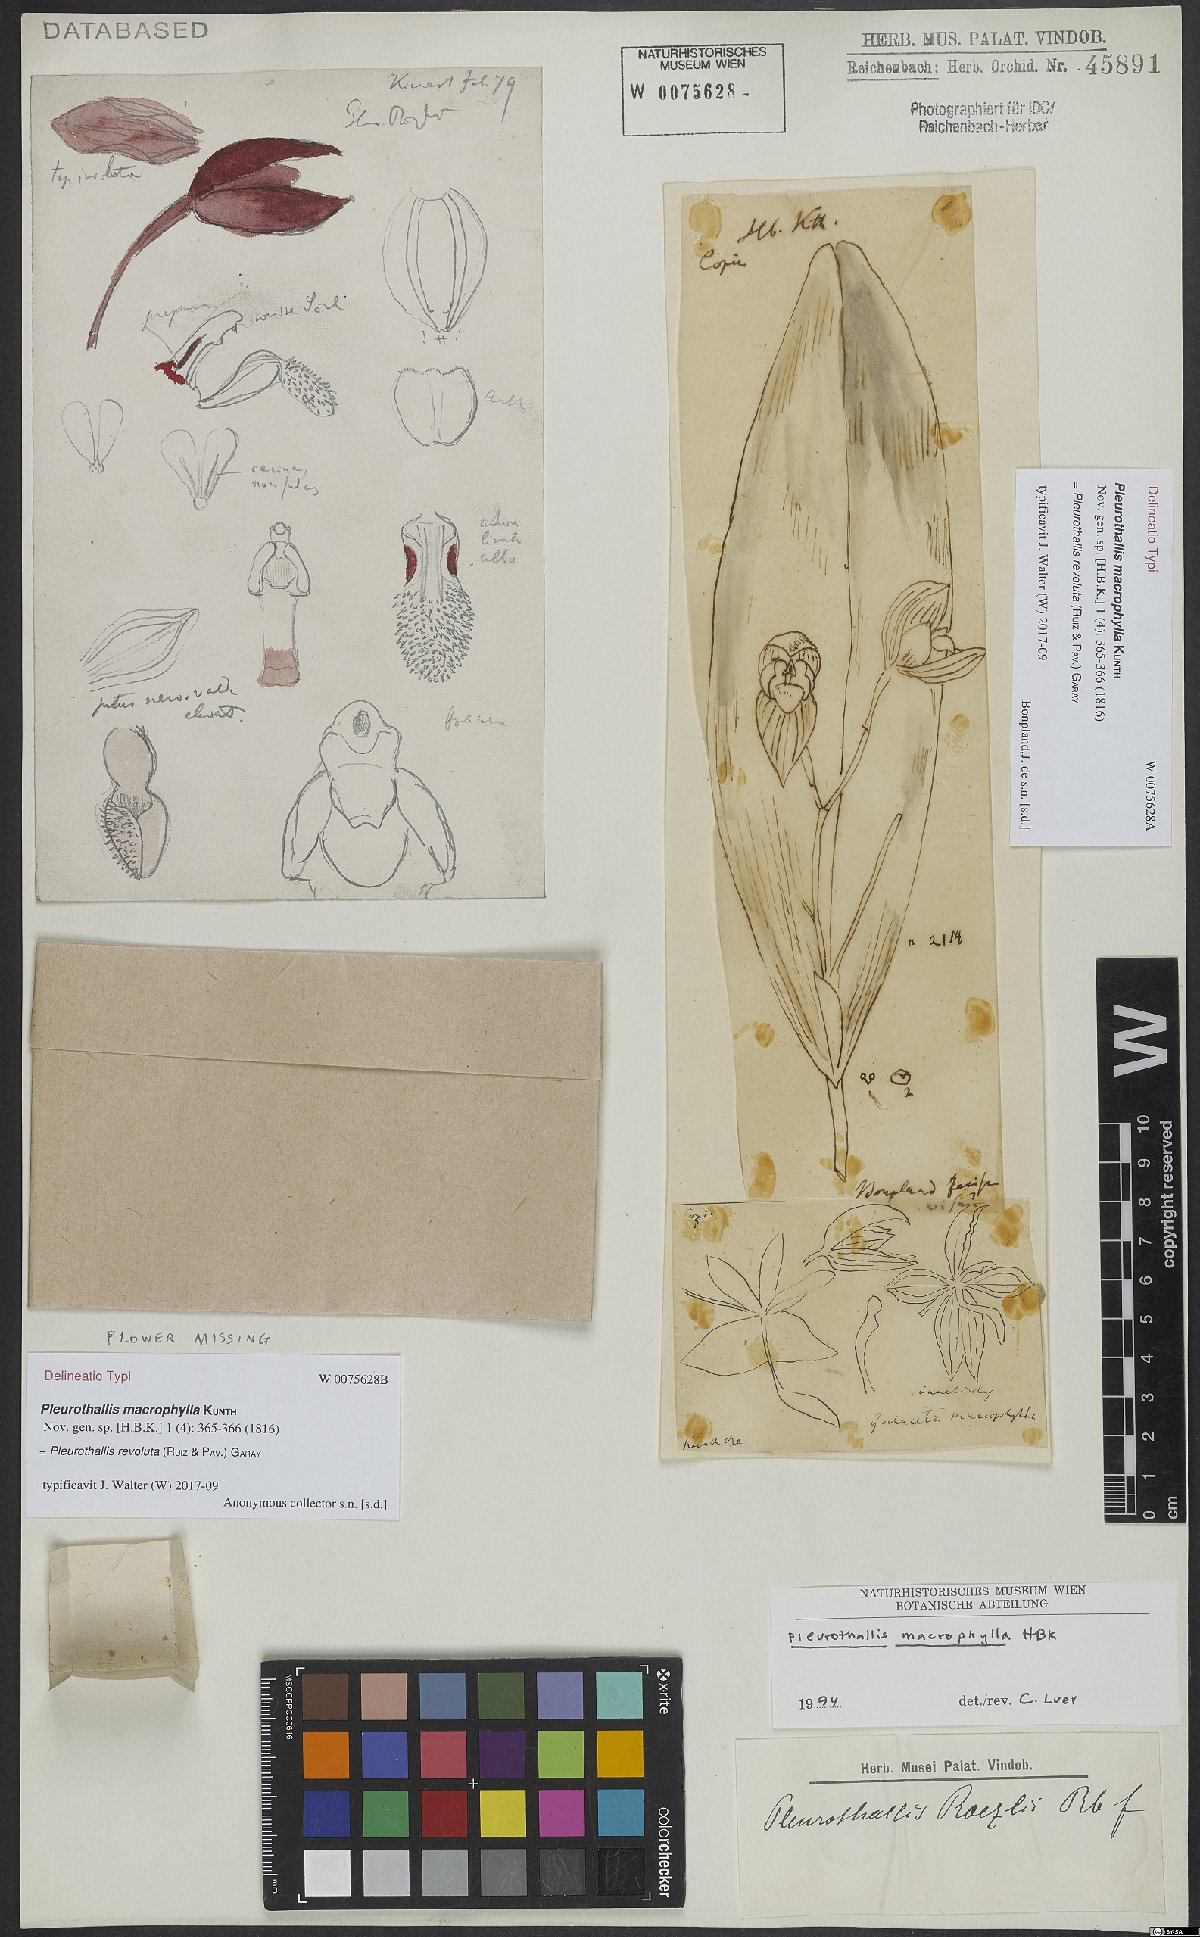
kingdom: Plantae
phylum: Tracheophyta
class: Liliopsida
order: Asparagales
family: Orchidaceae
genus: Pleurothallis
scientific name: Pleurothallis macrophylla
